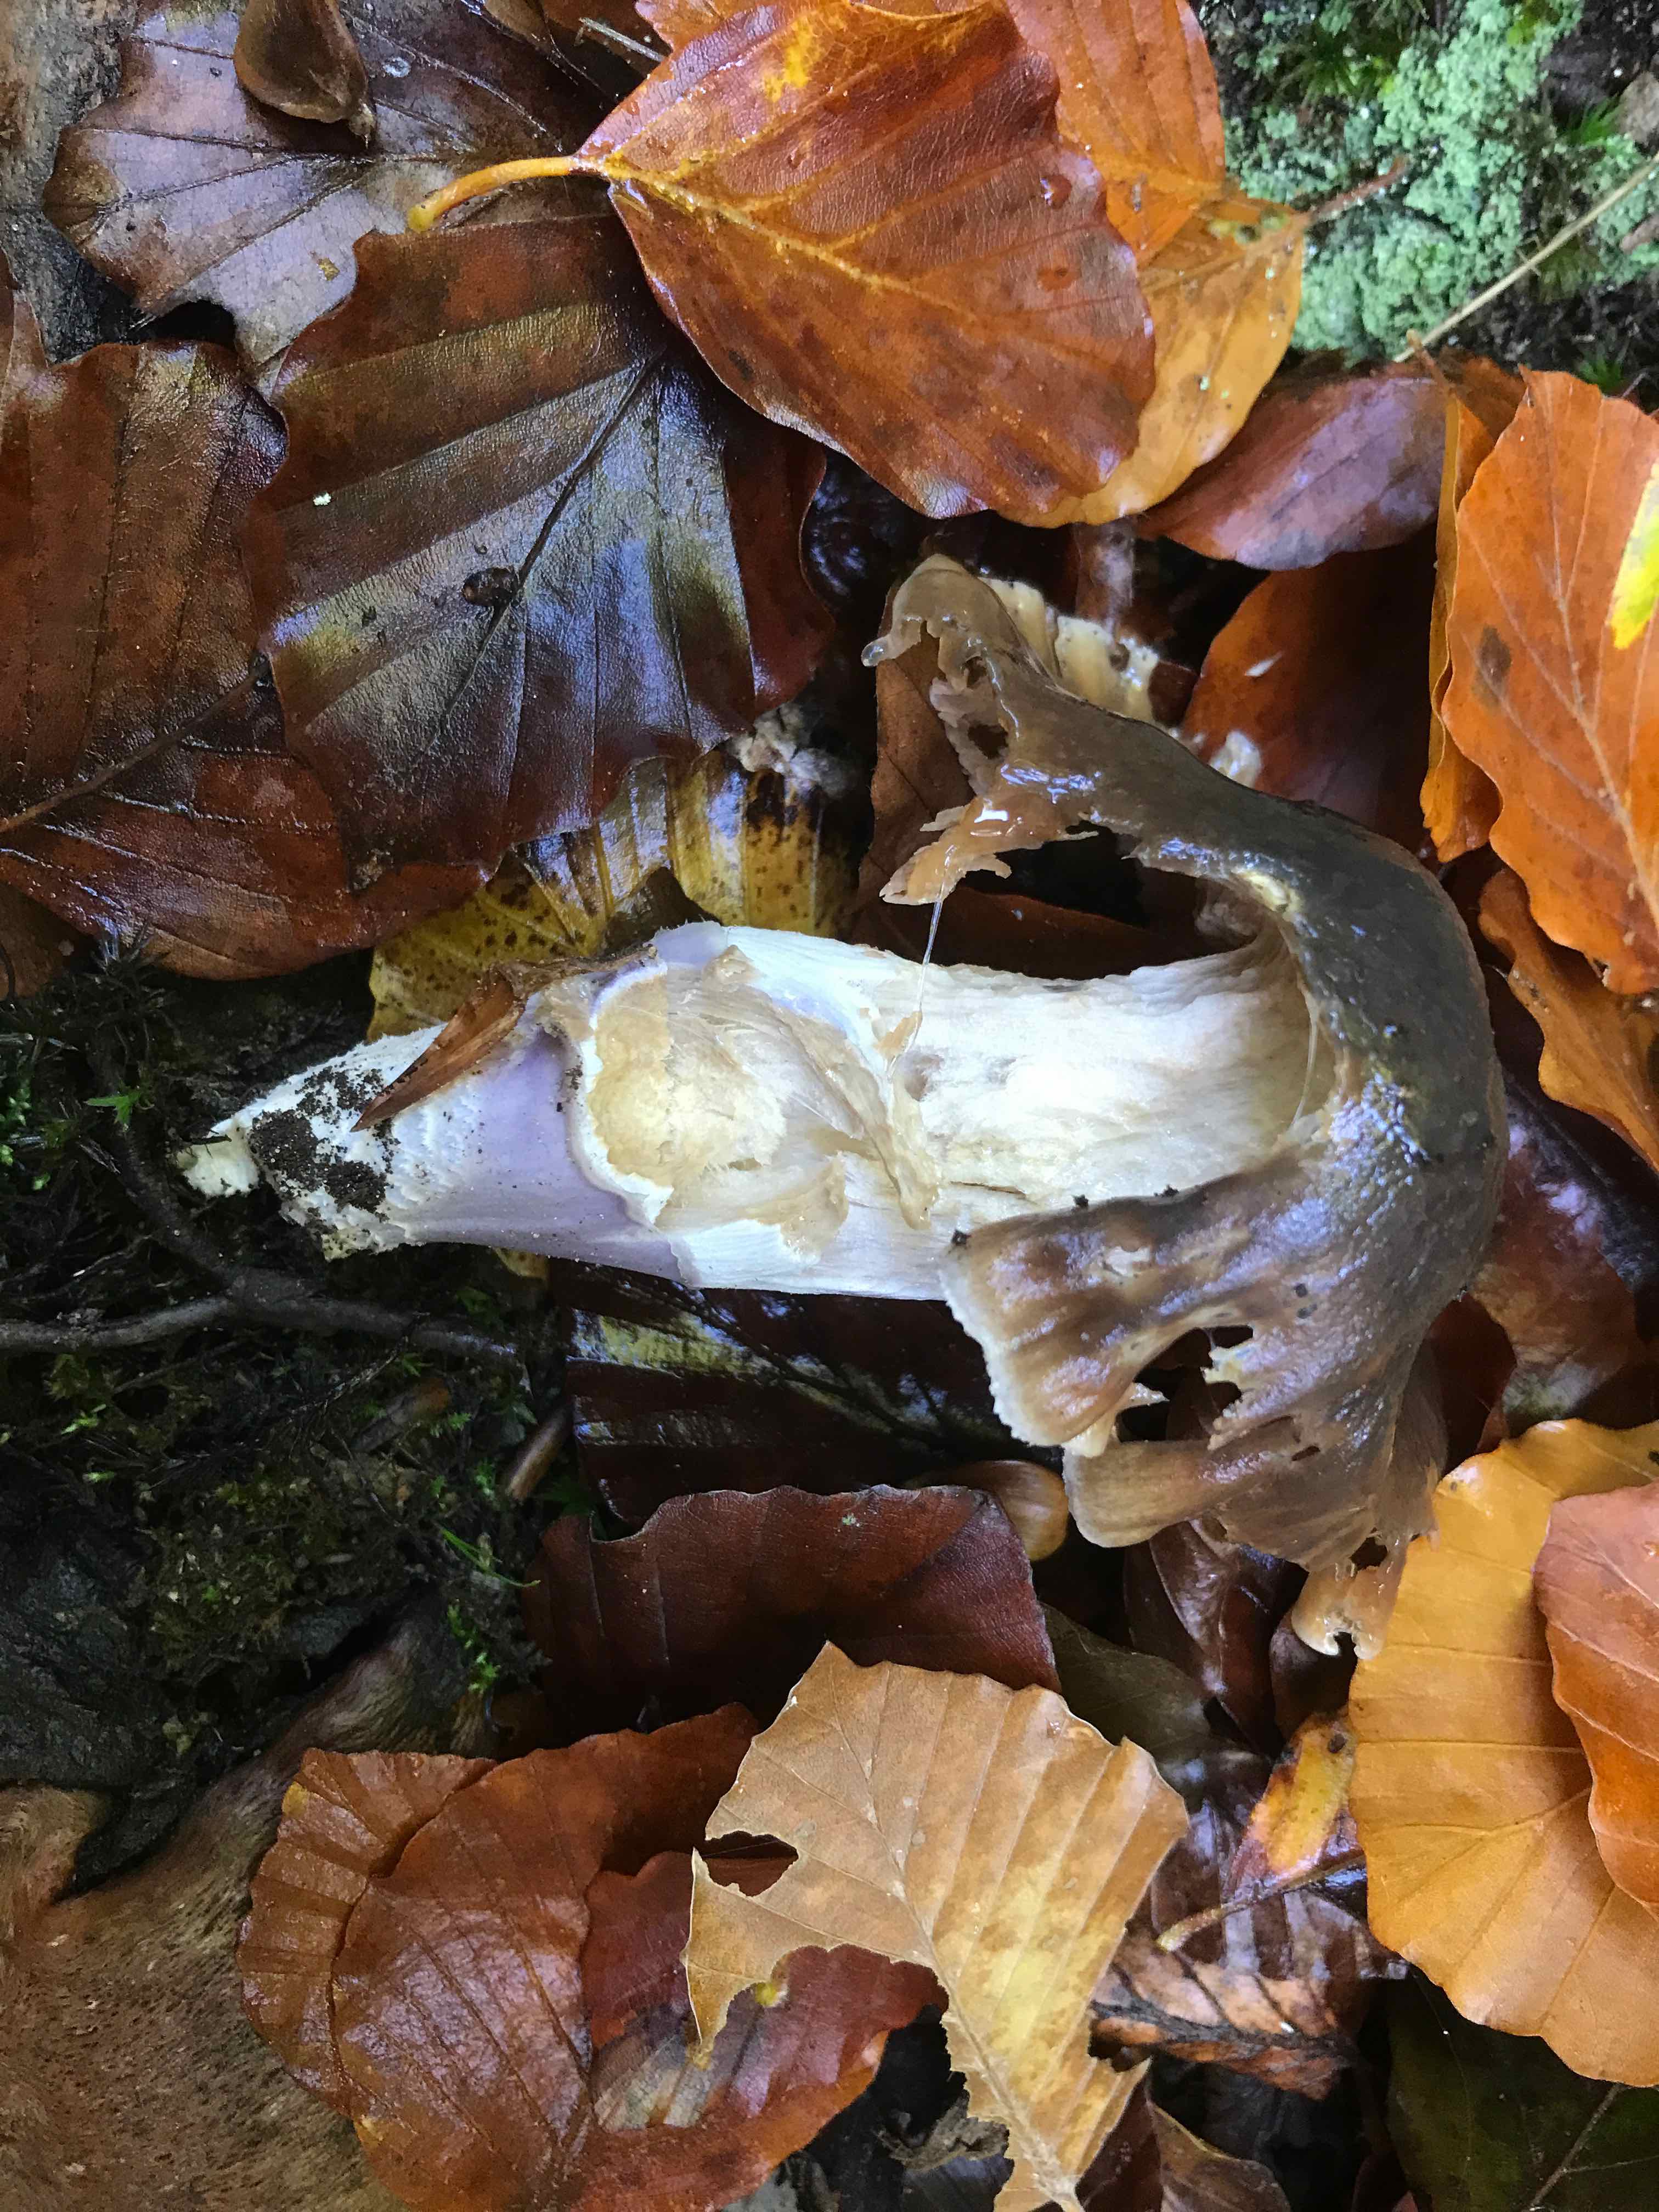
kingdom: Fungi
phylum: Basidiomycota
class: Agaricomycetes
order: Agaricales
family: Cortinariaceae
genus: Cortinarius
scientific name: Cortinarius elatior
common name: høj slørhat
